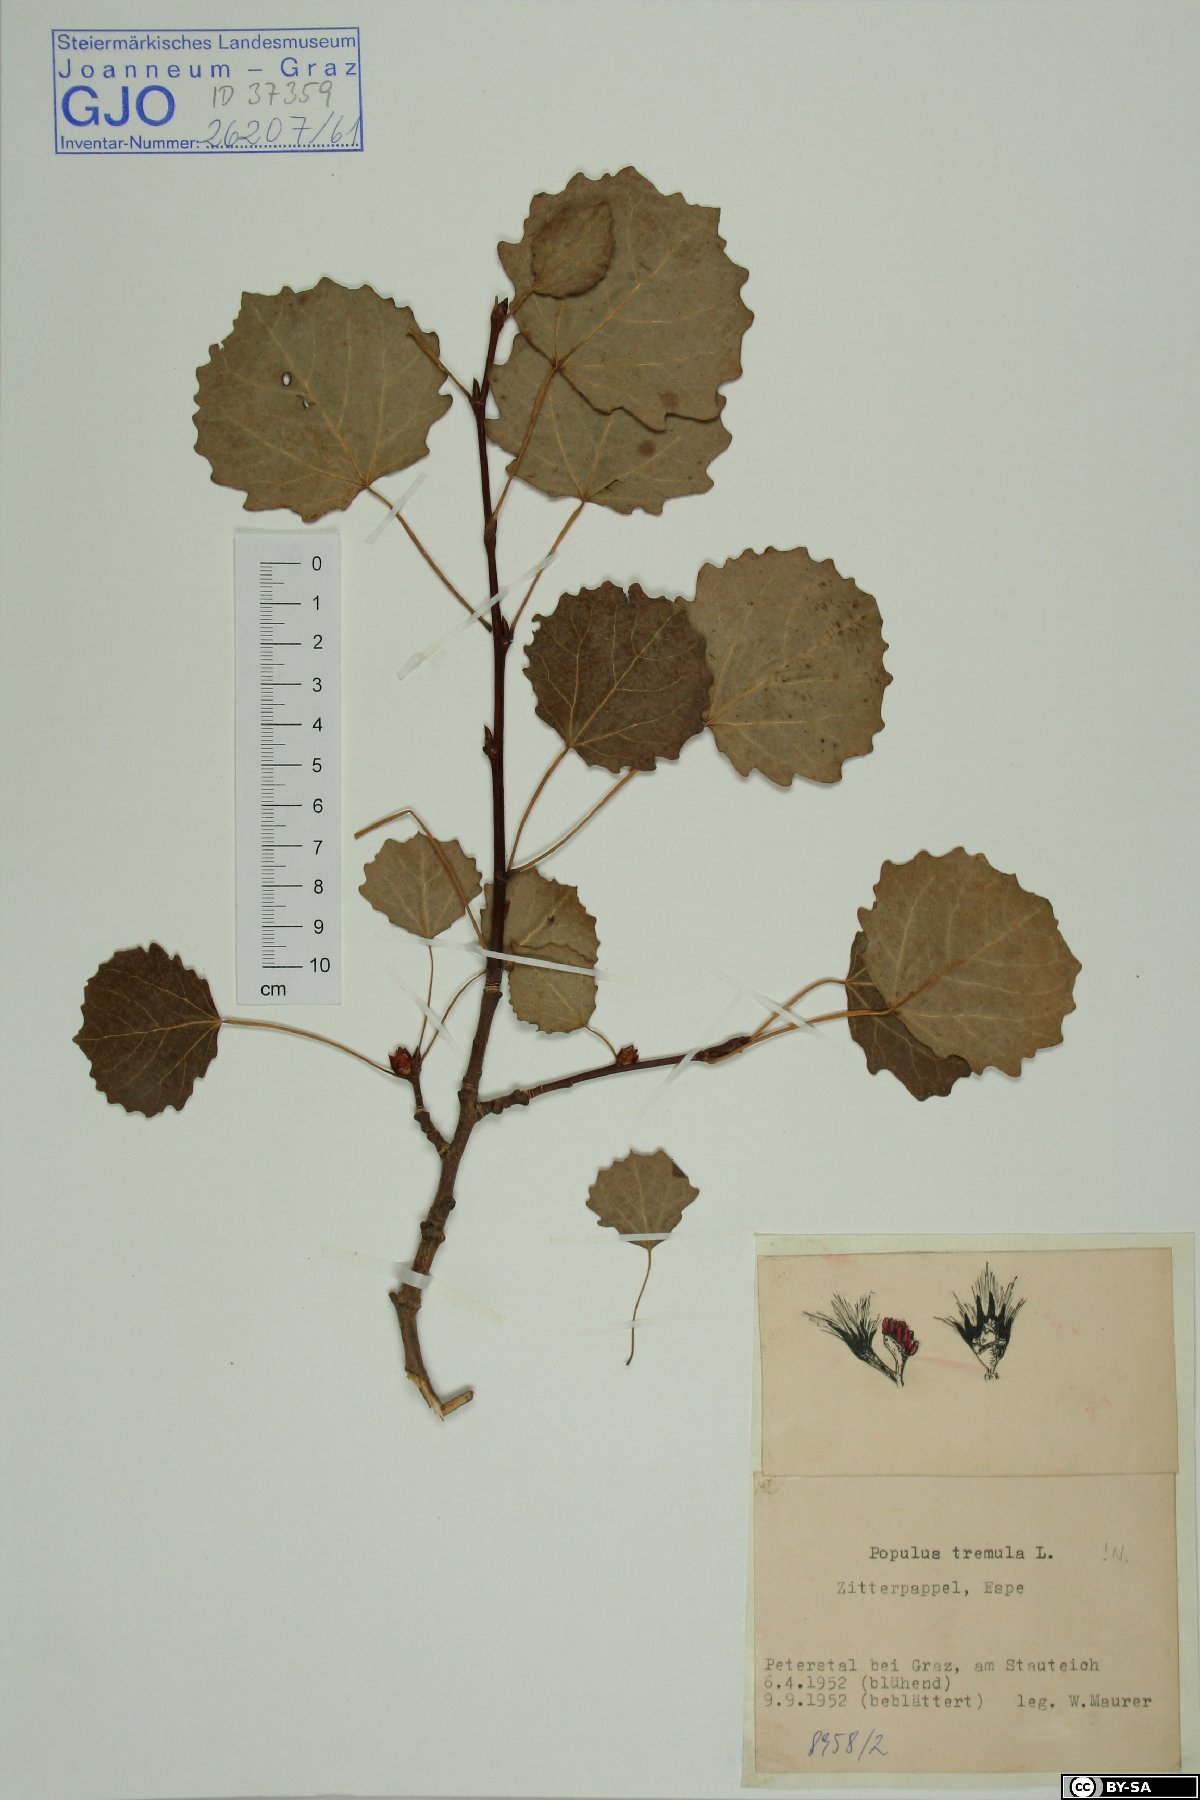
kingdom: Plantae
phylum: Tracheophyta
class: Magnoliopsida
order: Malpighiales
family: Salicaceae
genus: Populus
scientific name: Populus tremula
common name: European aspen
